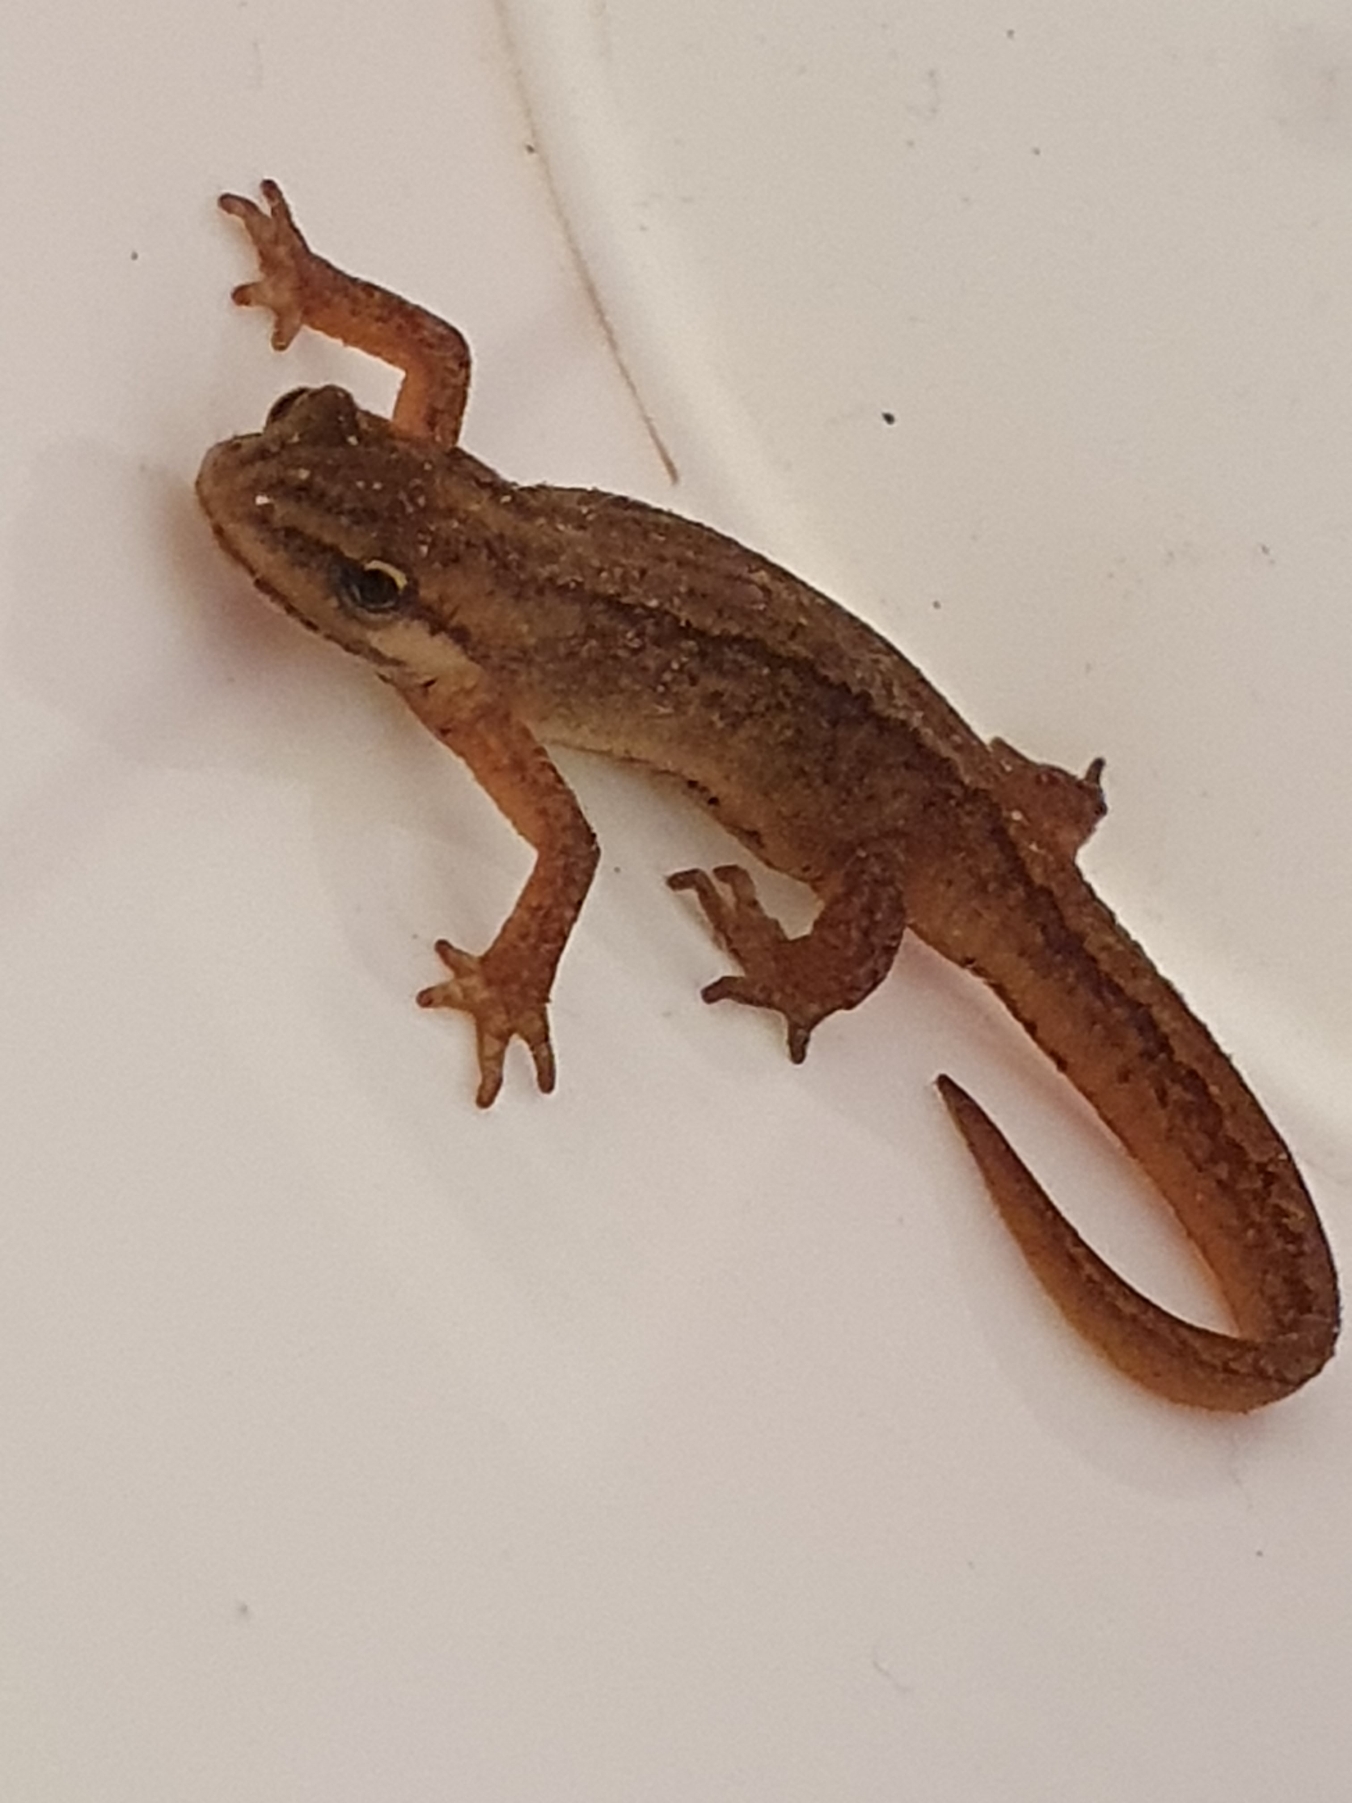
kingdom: Animalia
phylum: Chordata
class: Amphibia
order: Caudata
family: Salamandridae
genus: Lissotriton
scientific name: Lissotriton vulgaris
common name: Lille vandsalamander
